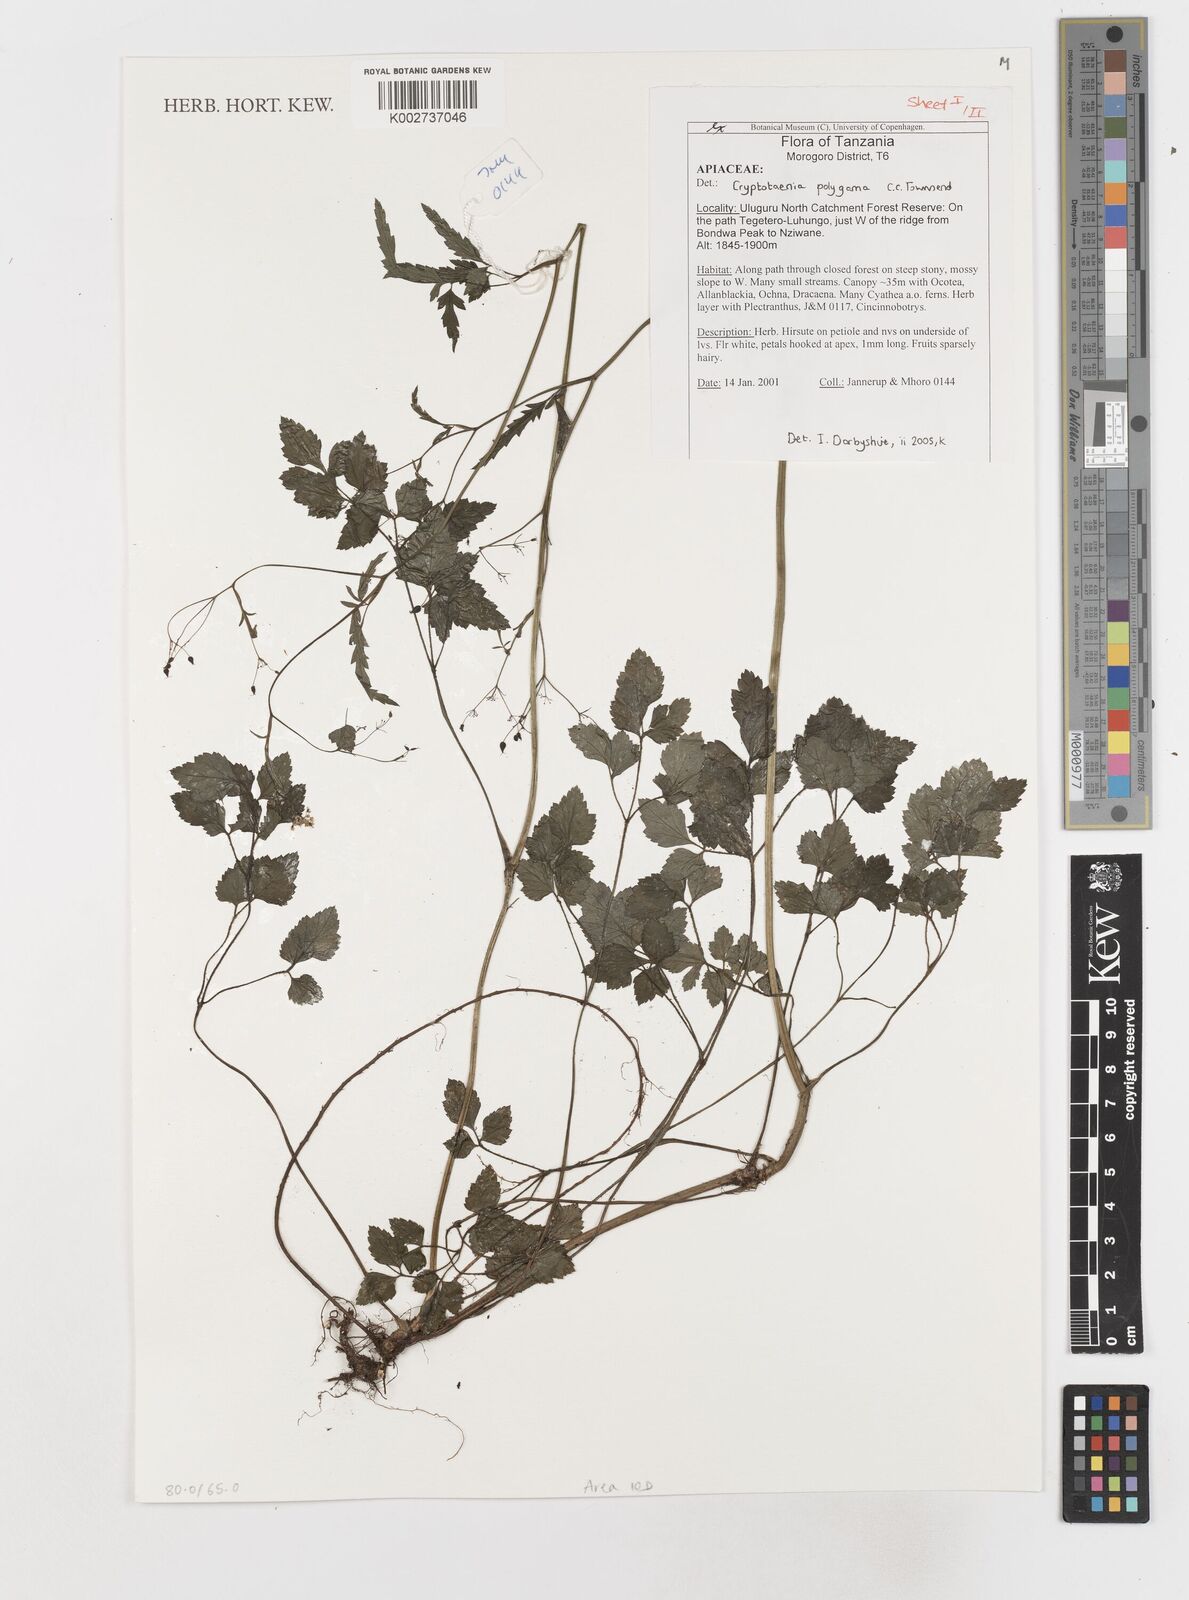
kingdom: Plantae
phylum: Tracheophyta
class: Magnoliopsida
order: Apiales
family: Apiaceae
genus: Cryptotaenia
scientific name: Cryptotaenia polygama
